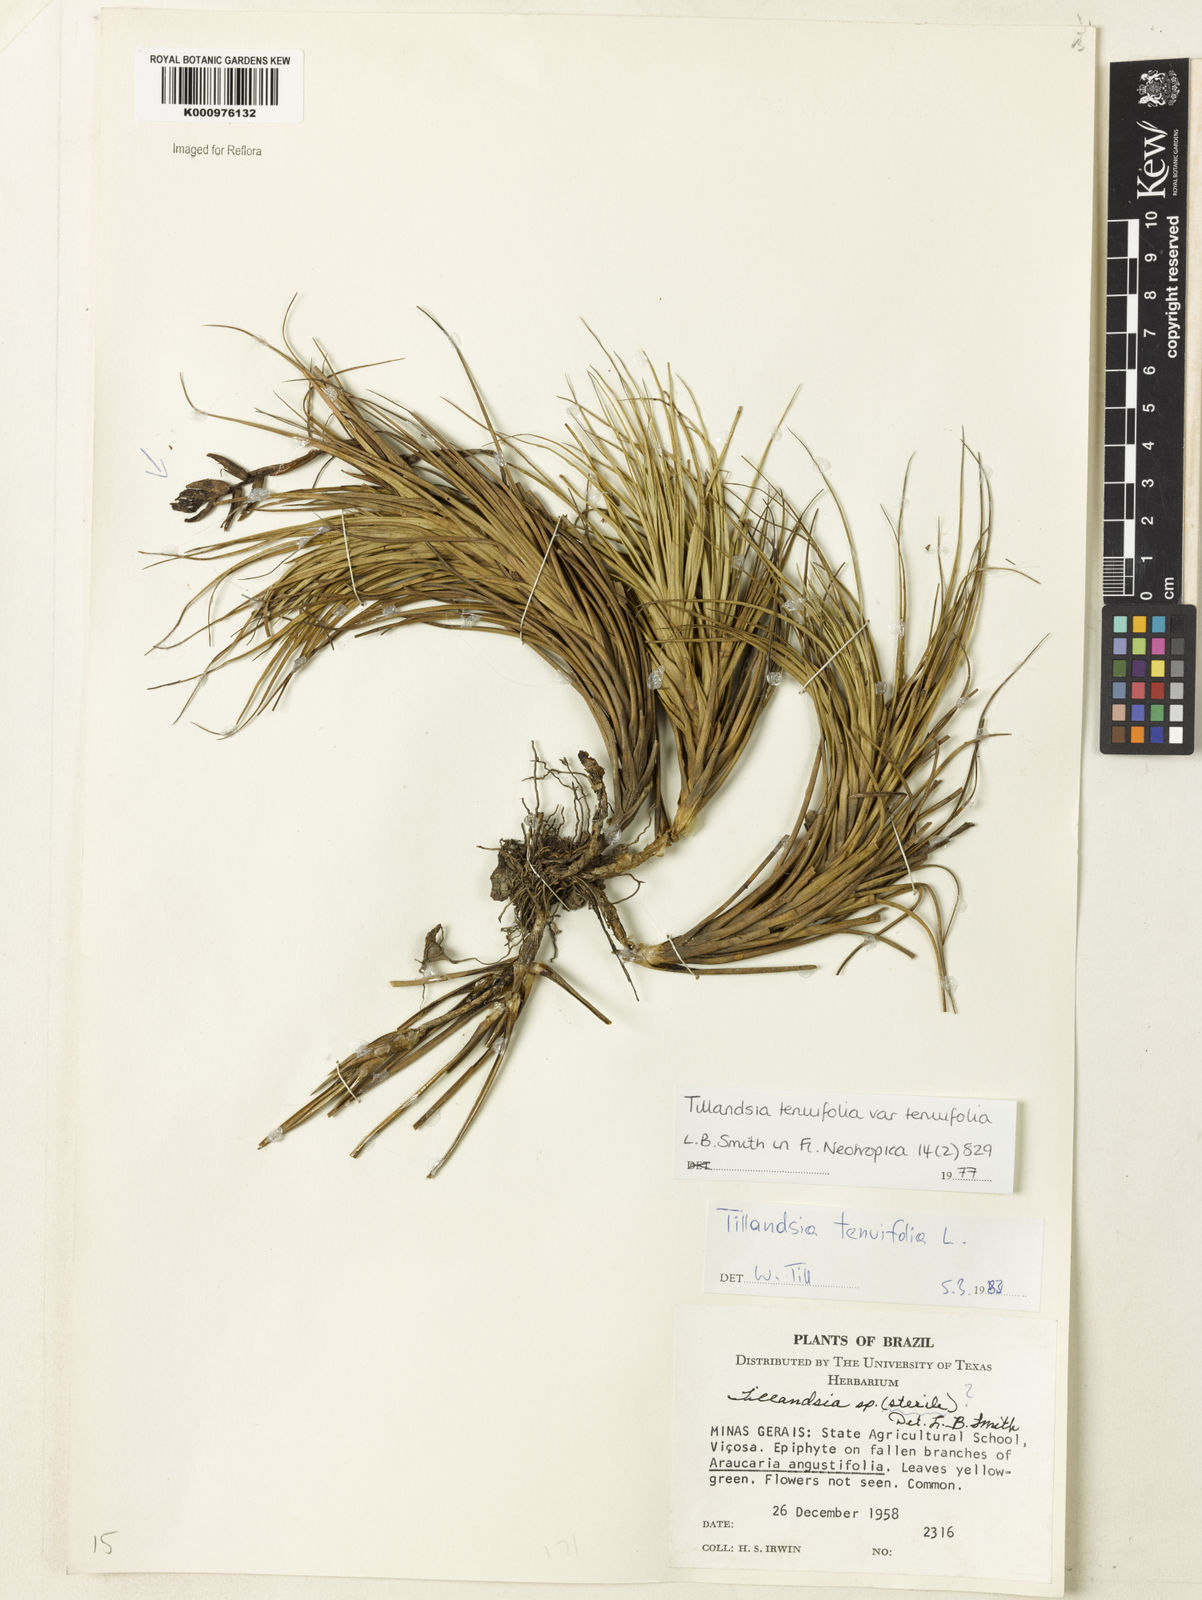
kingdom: Plantae
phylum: Tracheophyta
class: Liliopsida
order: Poales
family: Bromeliaceae
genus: Tillandsia
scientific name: Tillandsia tenuifolia
